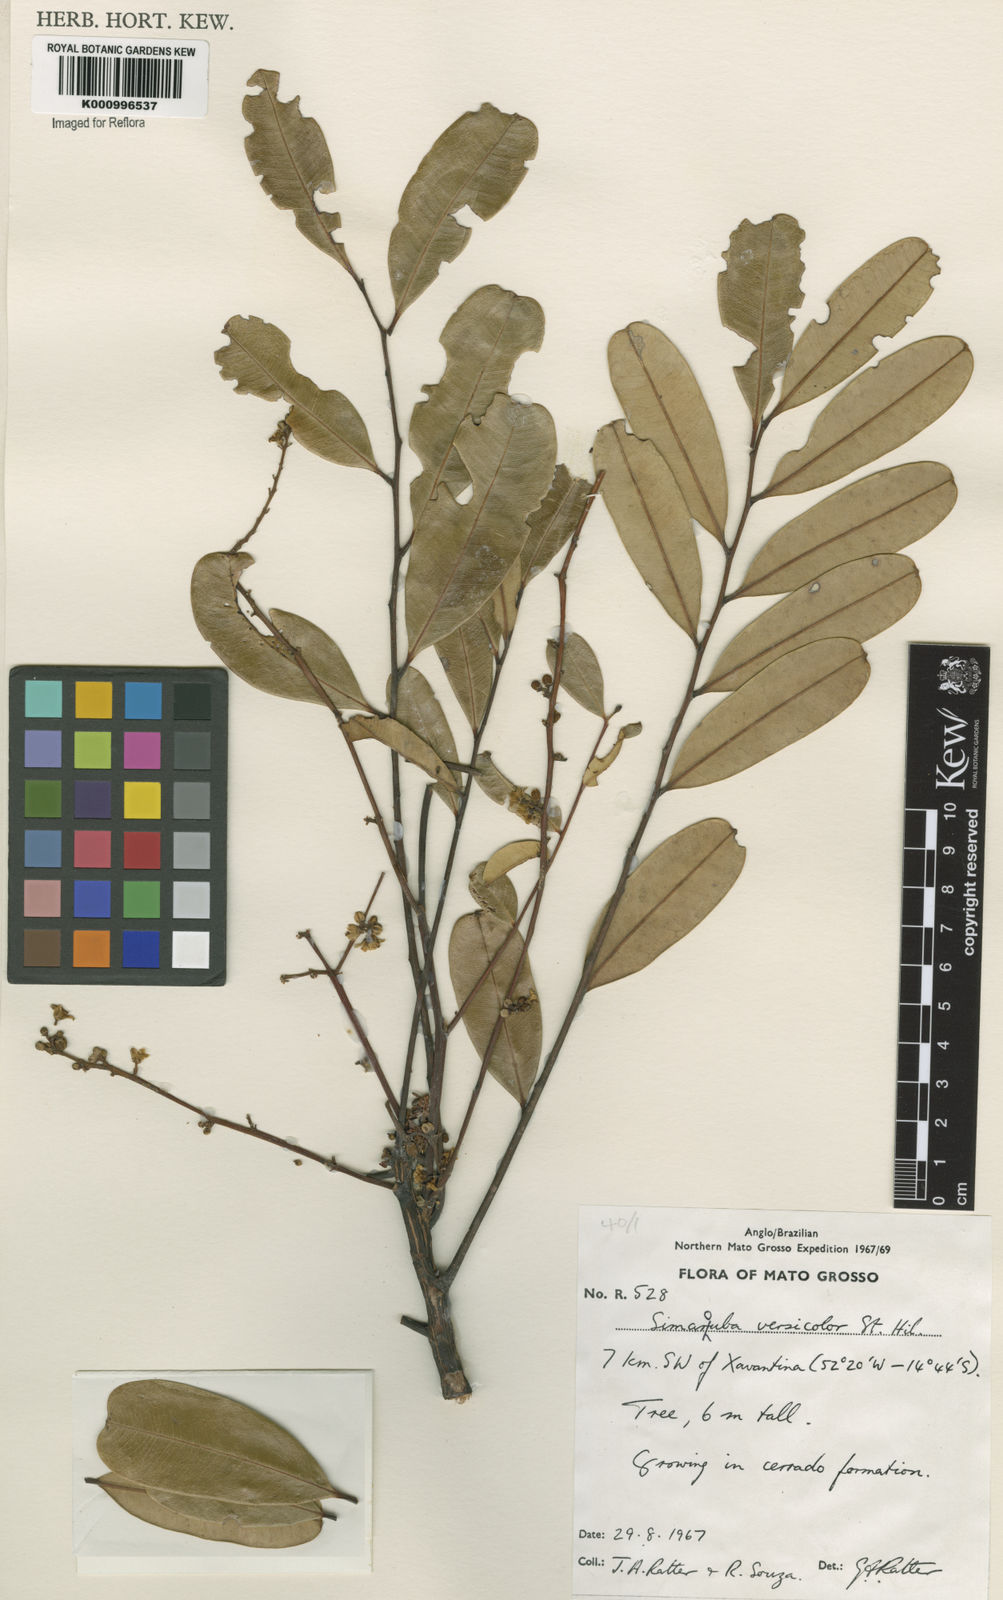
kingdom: Plantae
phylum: Tracheophyta
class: Magnoliopsida
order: Sapindales
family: Simaroubaceae
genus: Simarouba
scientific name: Simarouba versicolor
